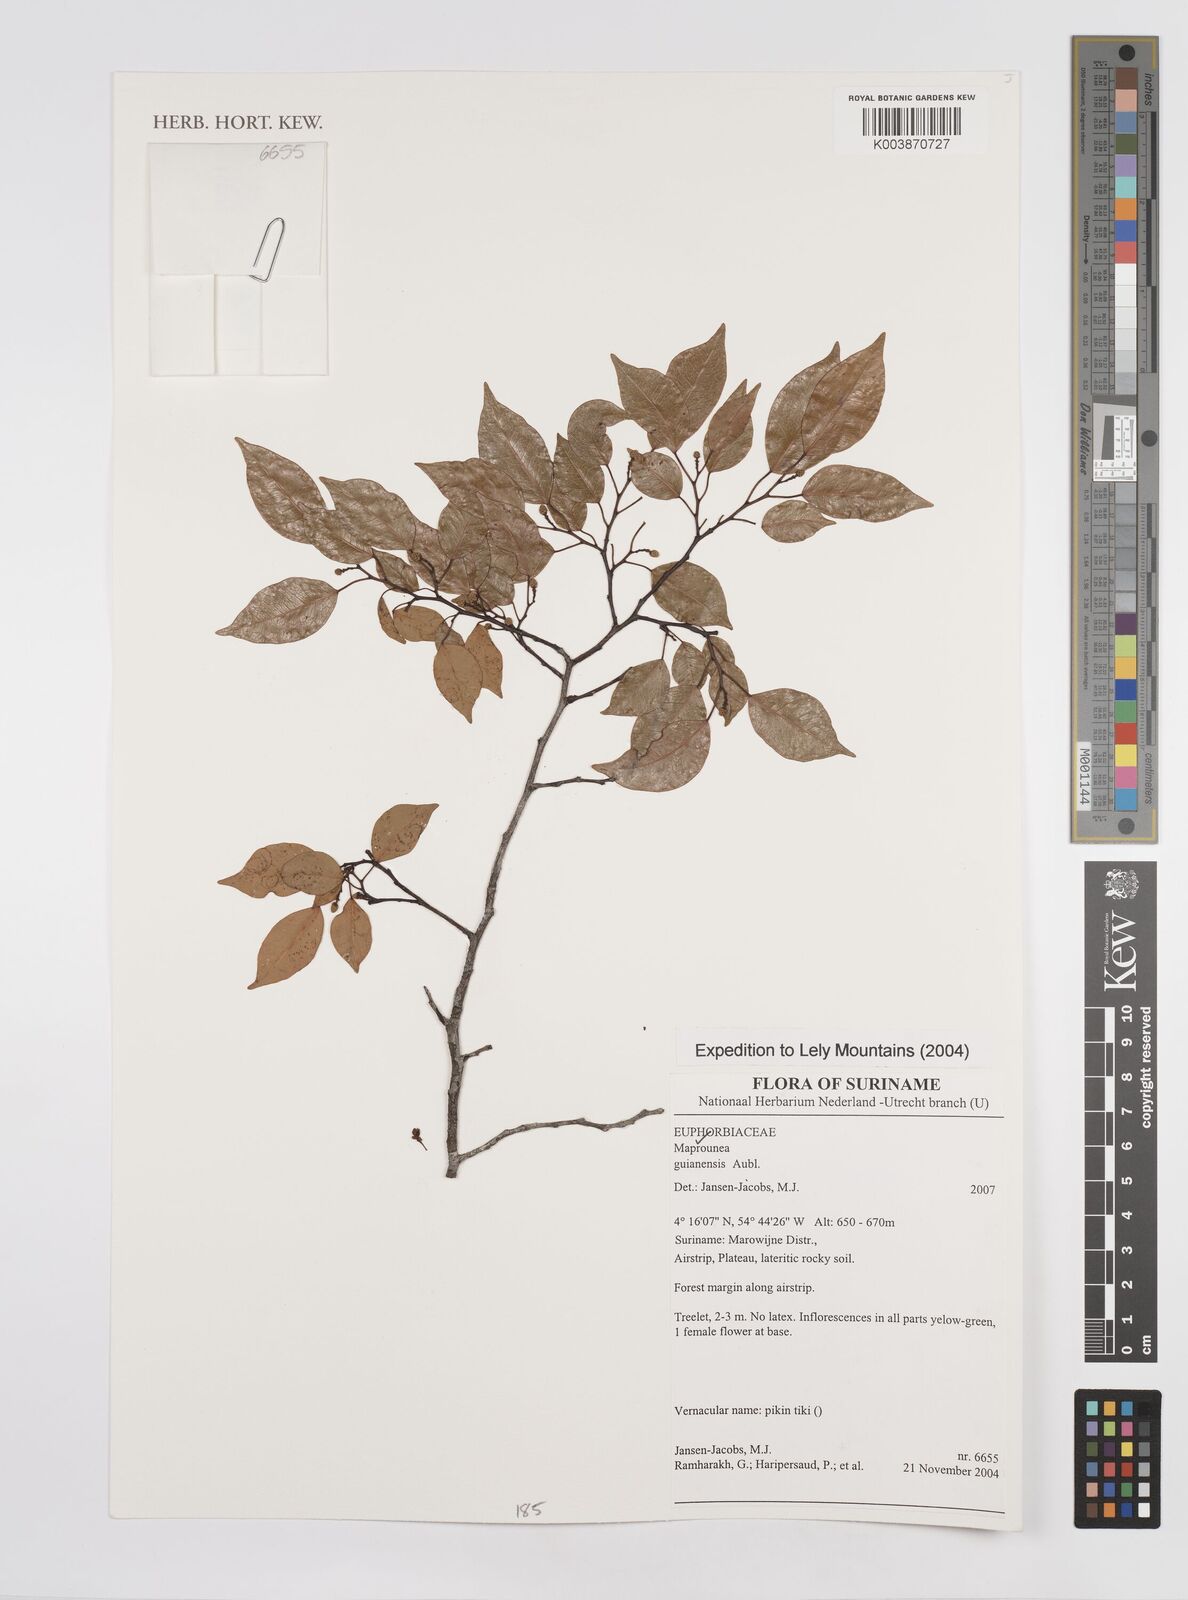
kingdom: Plantae
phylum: Tracheophyta
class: Magnoliopsida
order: Malpighiales
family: Euphorbiaceae
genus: Maprounea
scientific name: Maprounea guianensis
